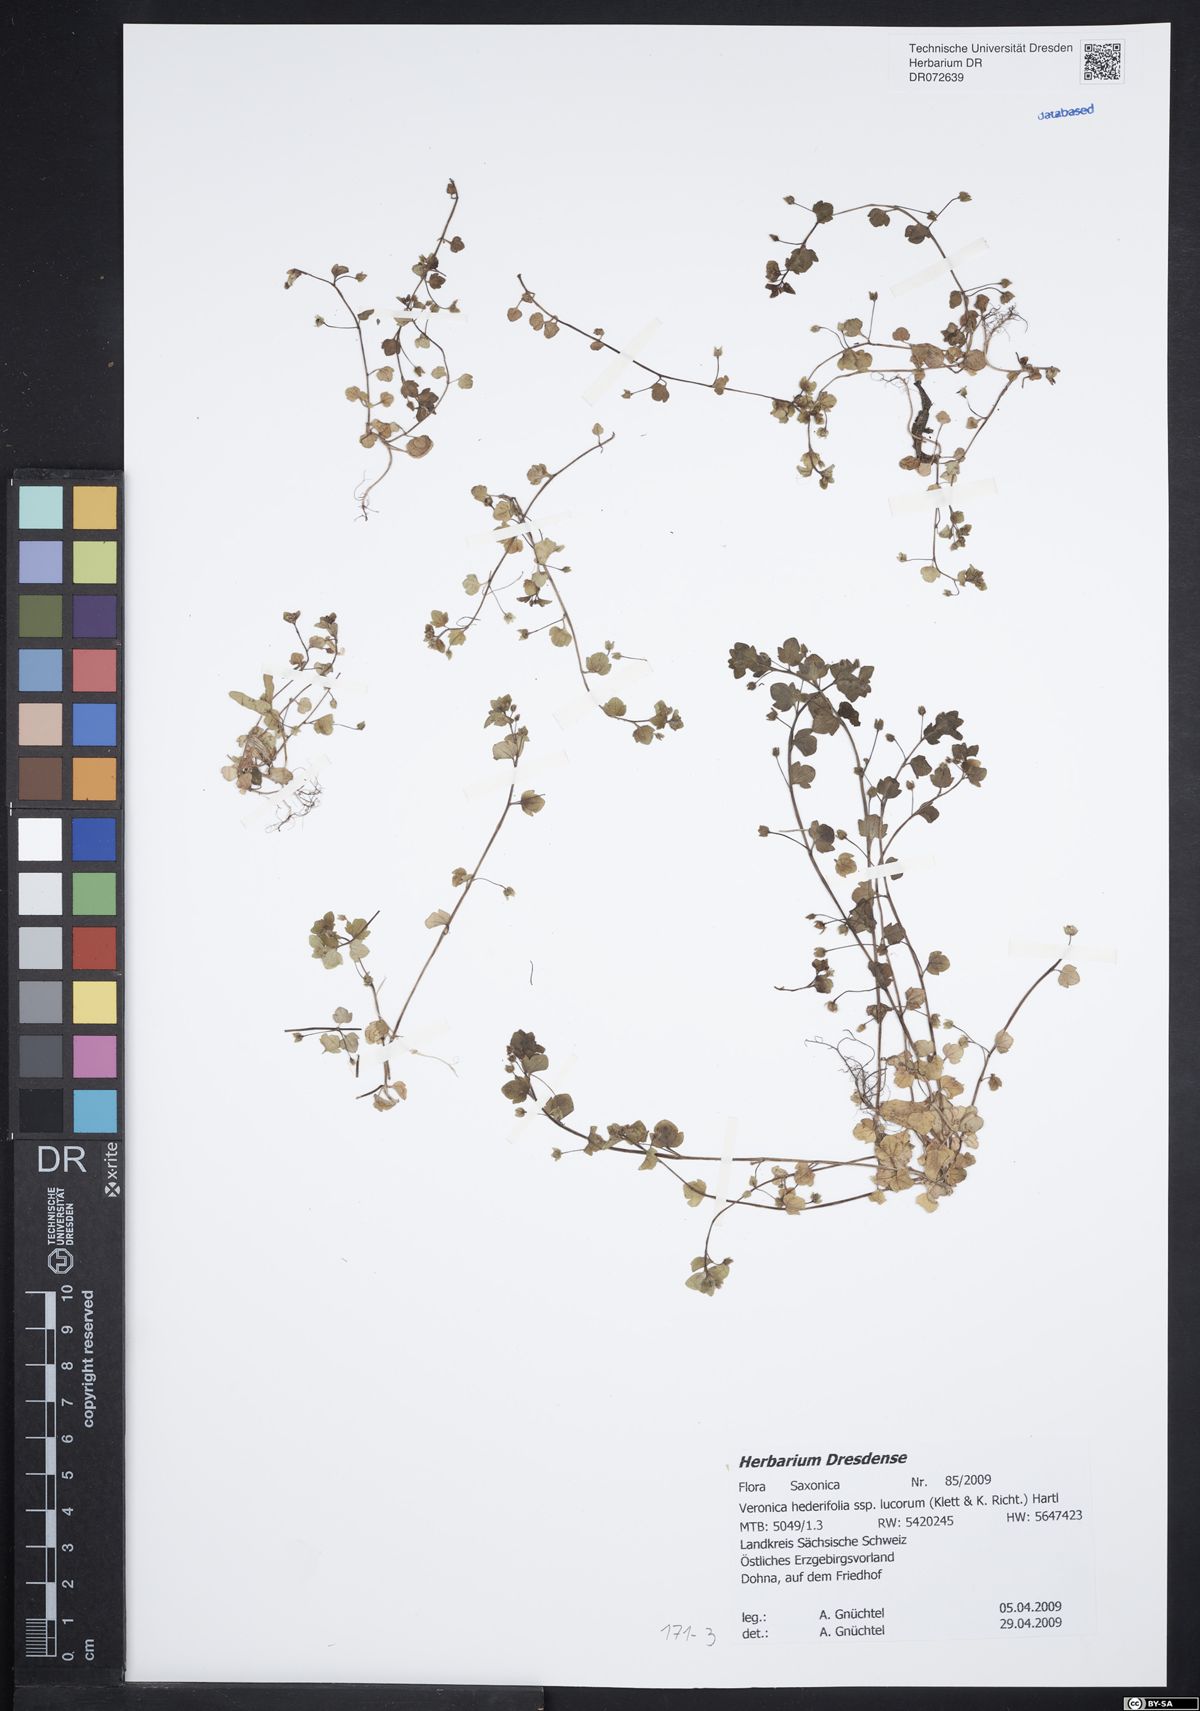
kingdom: Plantae
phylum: Tracheophyta
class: Magnoliopsida
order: Lamiales
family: Plantaginaceae
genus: Veronica
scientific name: Veronica hederifolia
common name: Ivy-leaved speedwell
